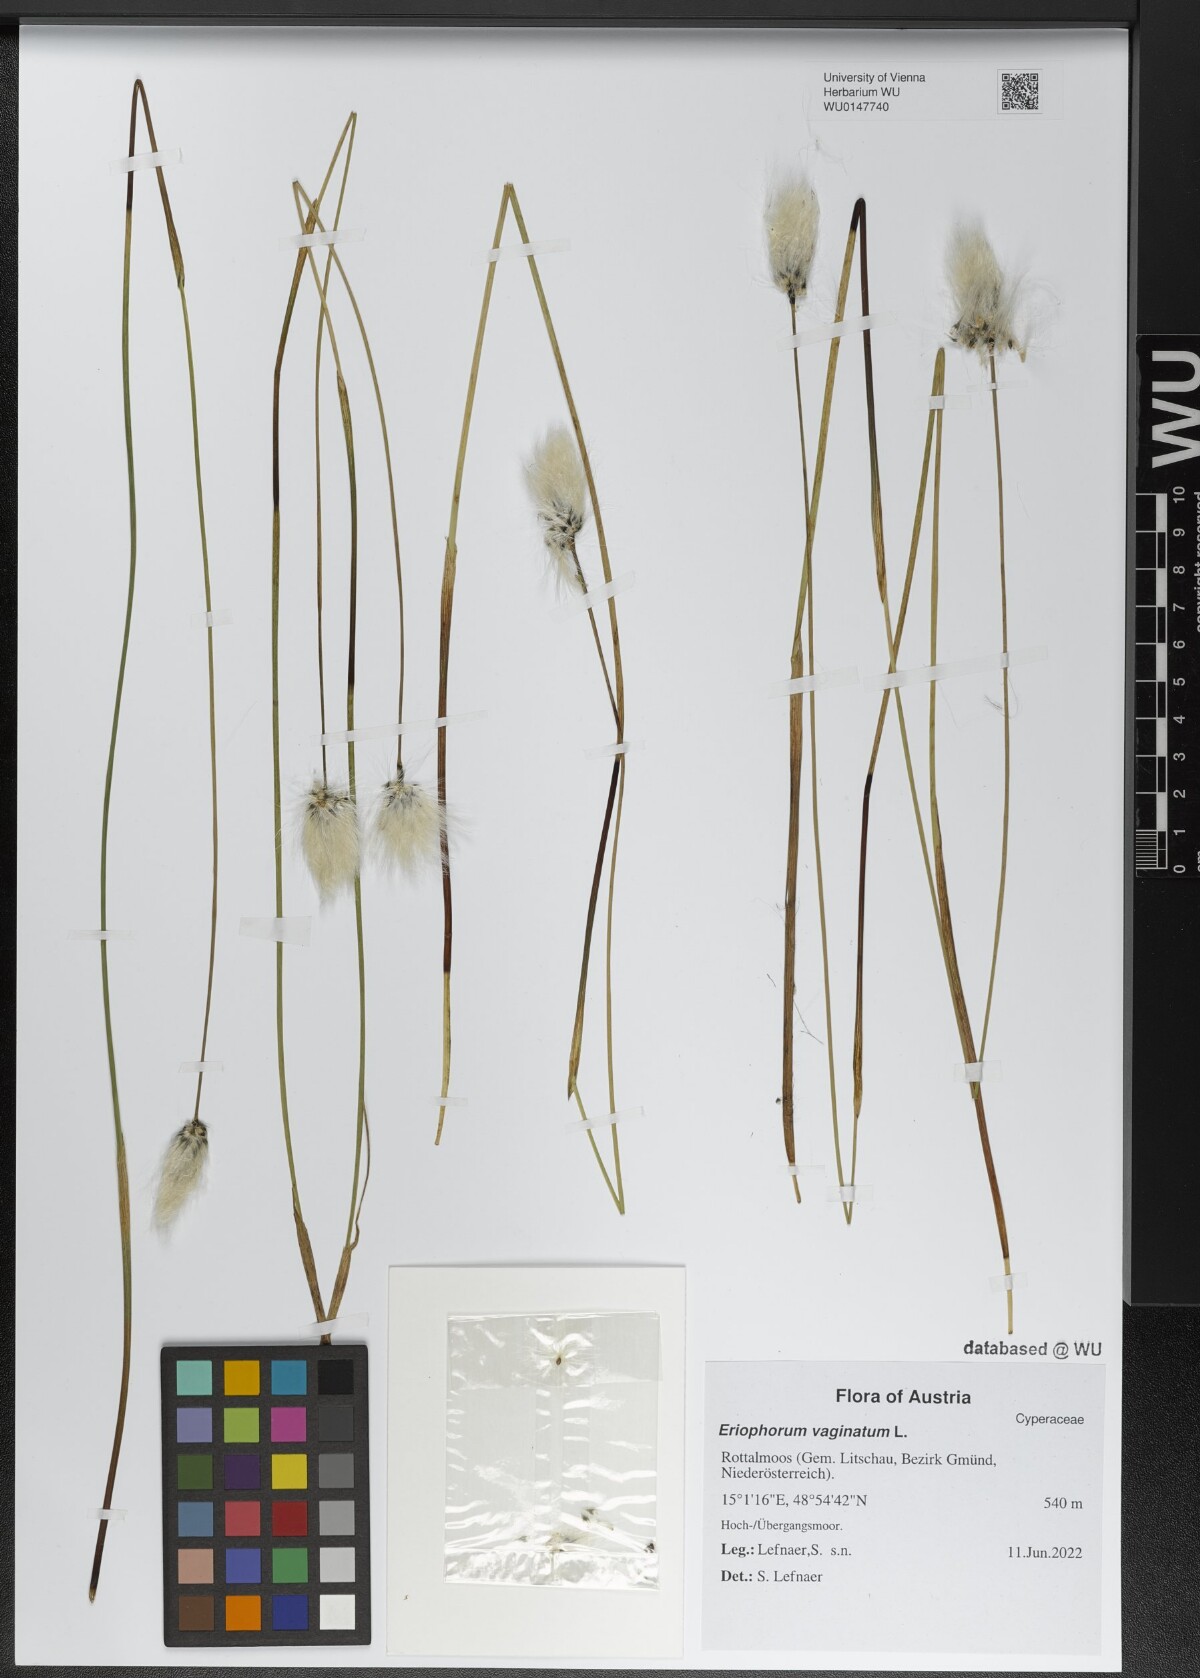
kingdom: Plantae
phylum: Tracheophyta
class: Liliopsida
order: Poales
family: Cyperaceae
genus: Eriophorum
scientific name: Eriophorum vaginatum
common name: Hare's-tail cottongrass
